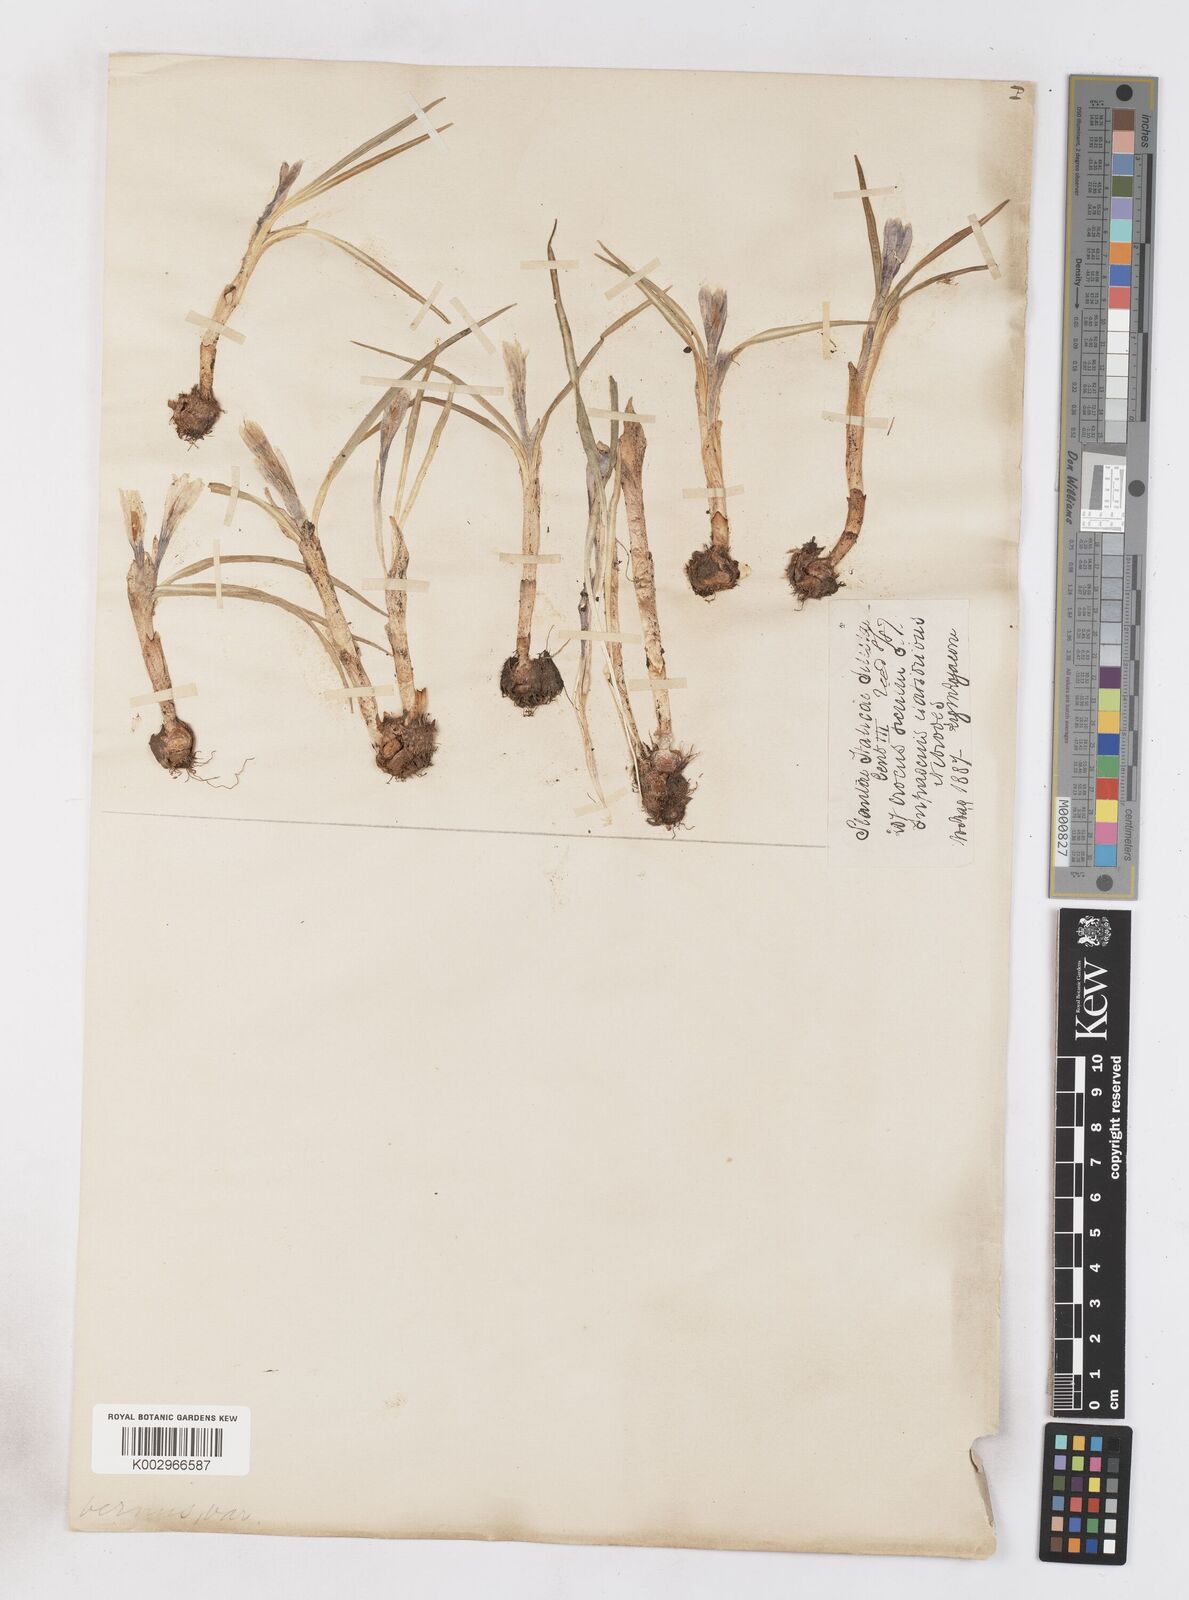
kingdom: Plantae
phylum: Tracheophyta
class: Liliopsida
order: Asparagales
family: Iridaceae
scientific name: Iridaceae
